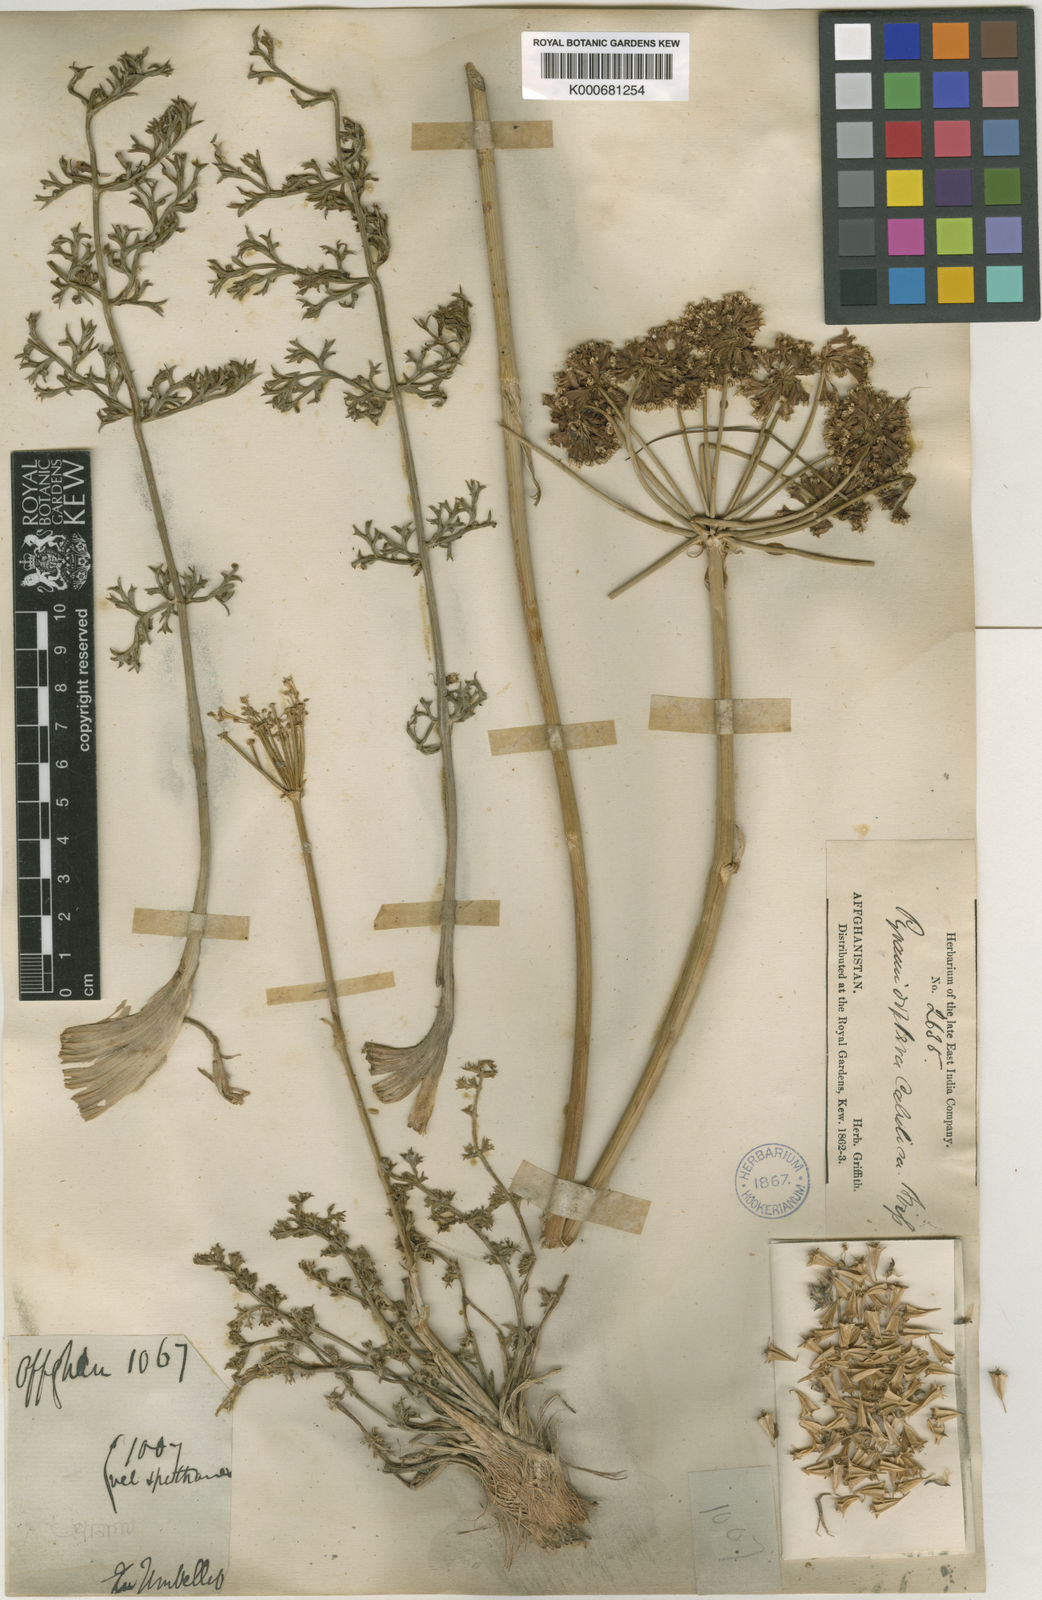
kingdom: Plantae
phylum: Tracheophyta
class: Magnoliopsida
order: Apiales
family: Apiaceae
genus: Pyramidoptera
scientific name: Pyramidoptera cabulica
